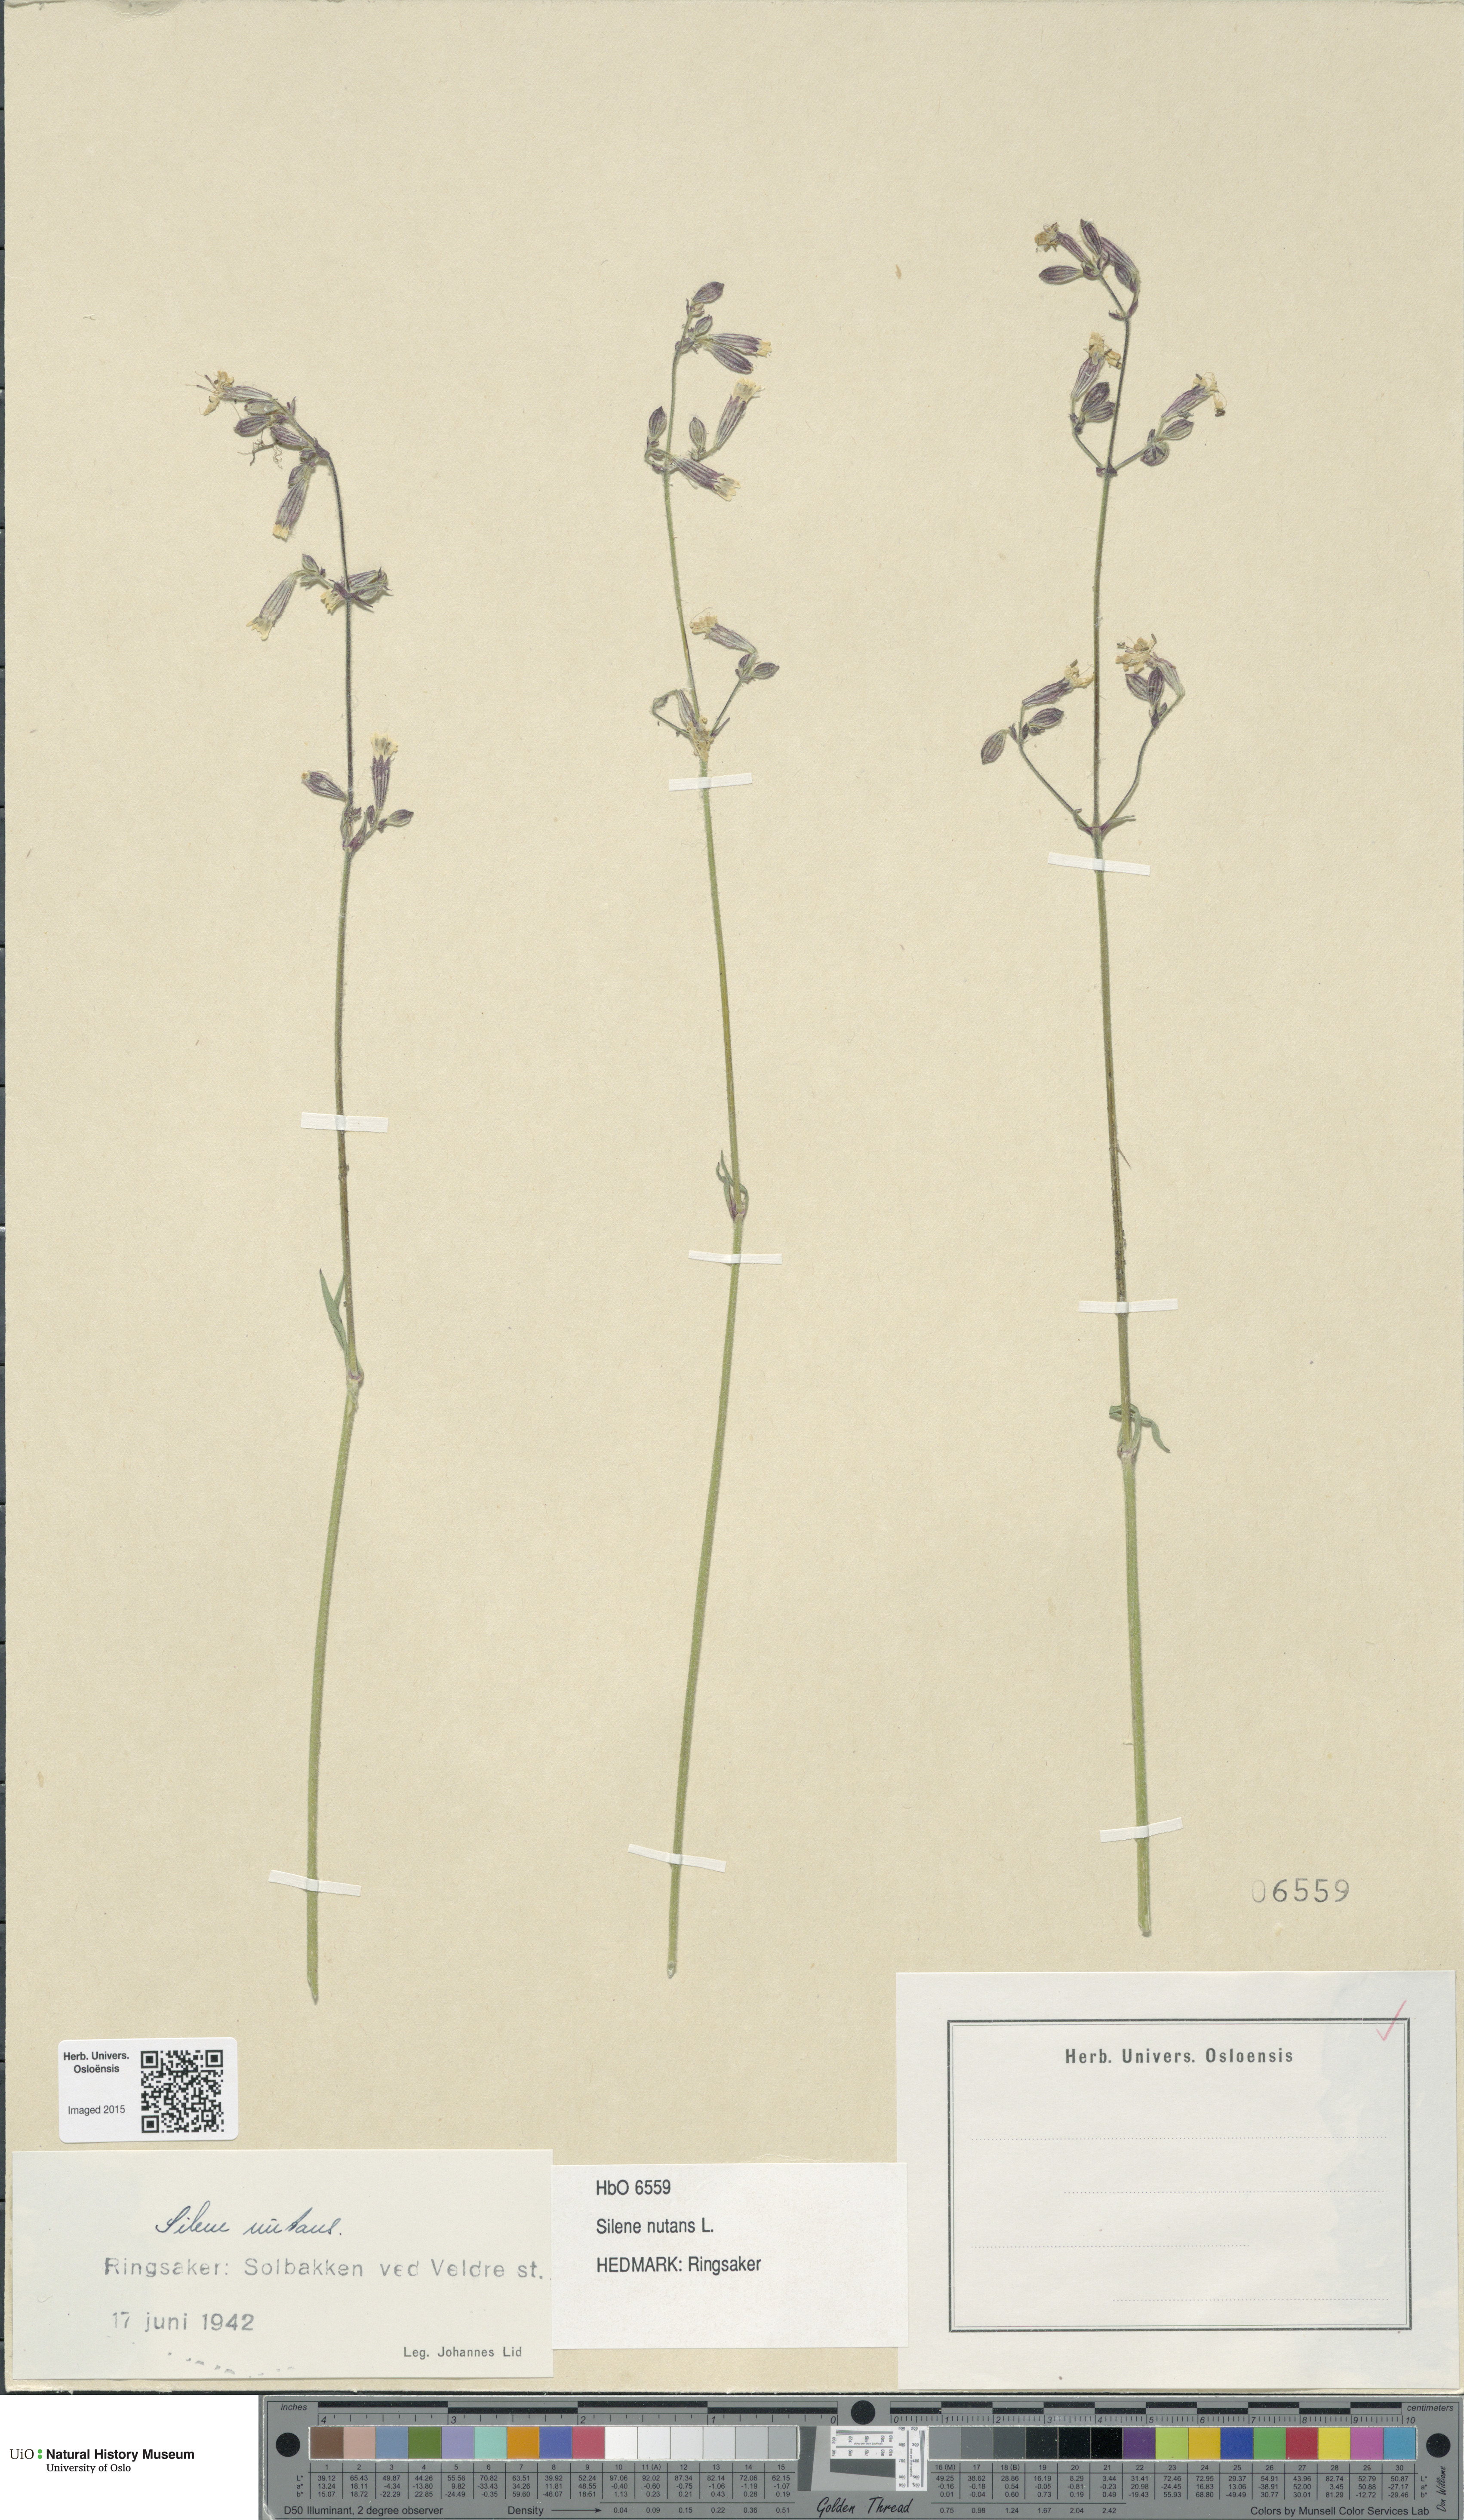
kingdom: Plantae
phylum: Tracheophyta
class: Magnoliopsida
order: Caryophyllales
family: Caryophyllaceae
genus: Silene
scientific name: Silene nutans
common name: Nottingham catchfly
